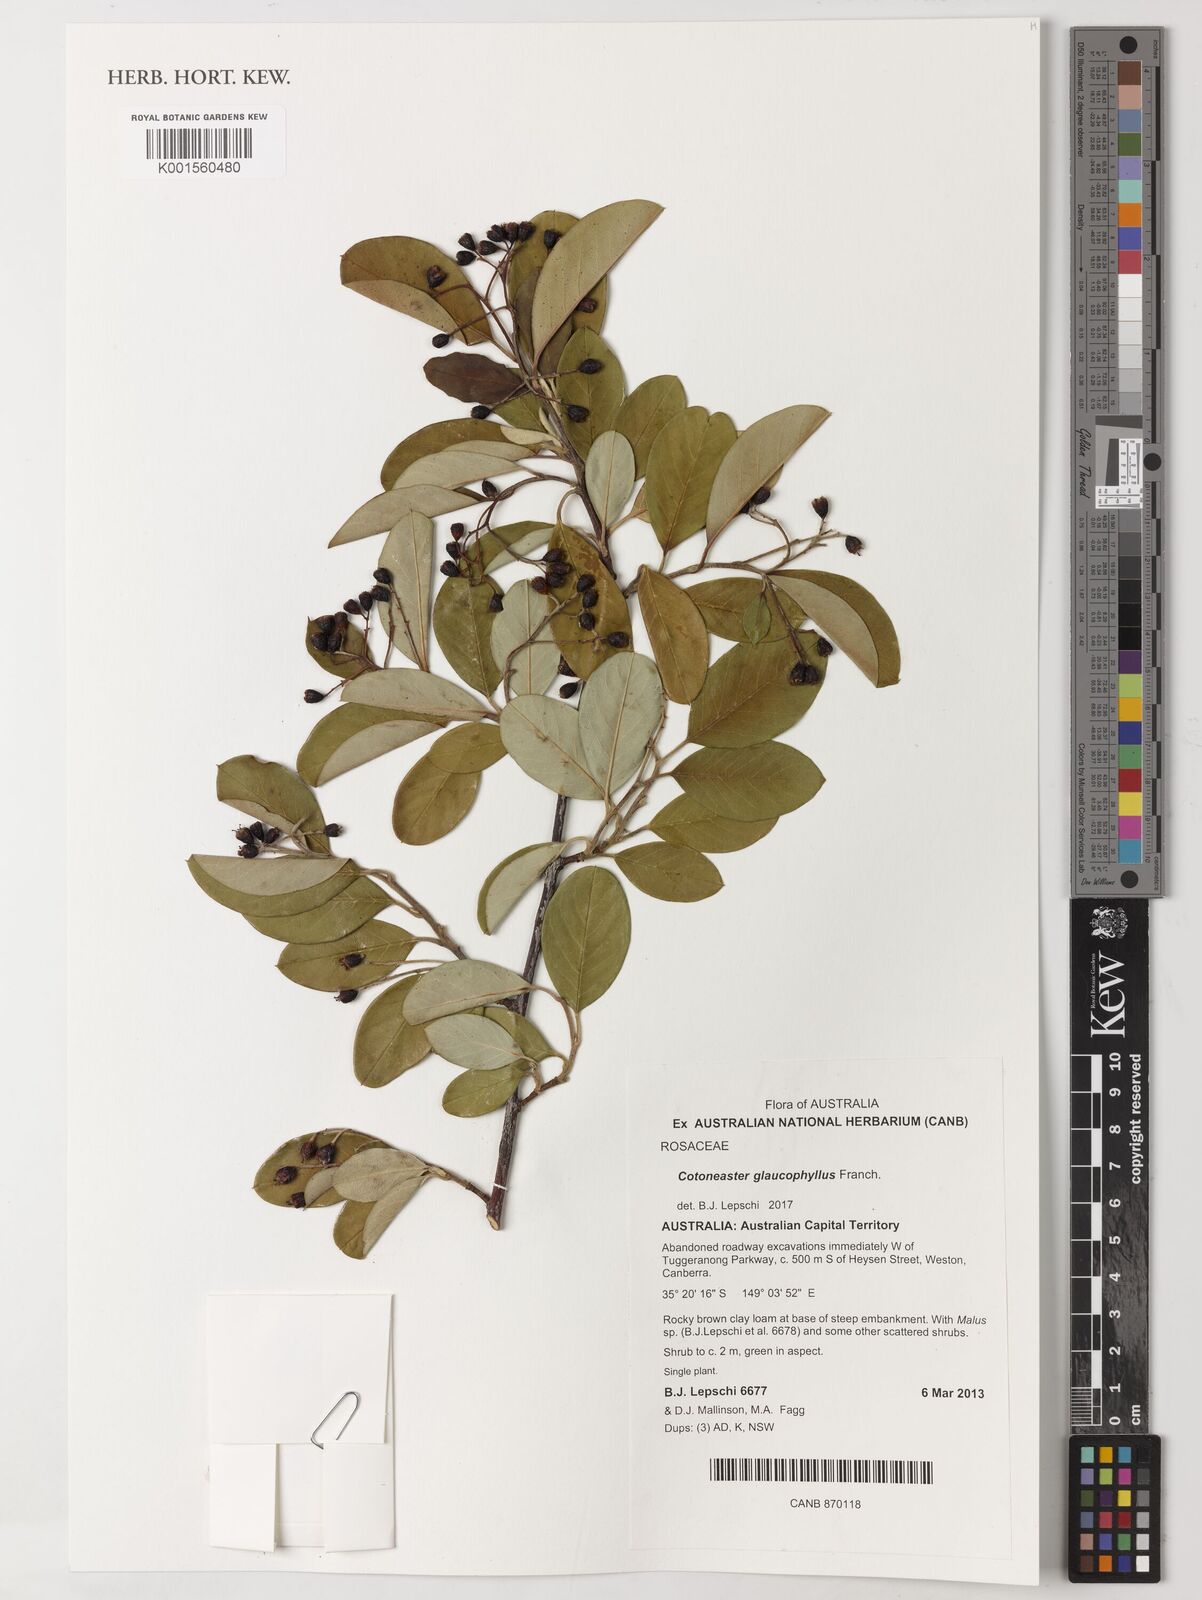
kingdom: Plantae
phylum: Tracheophyta
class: Magnoliopsida
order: Rosales
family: Rosaceae
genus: Cotoneaster
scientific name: Cotoneaster glaucophyllus
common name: Glaucous cotoneaster
